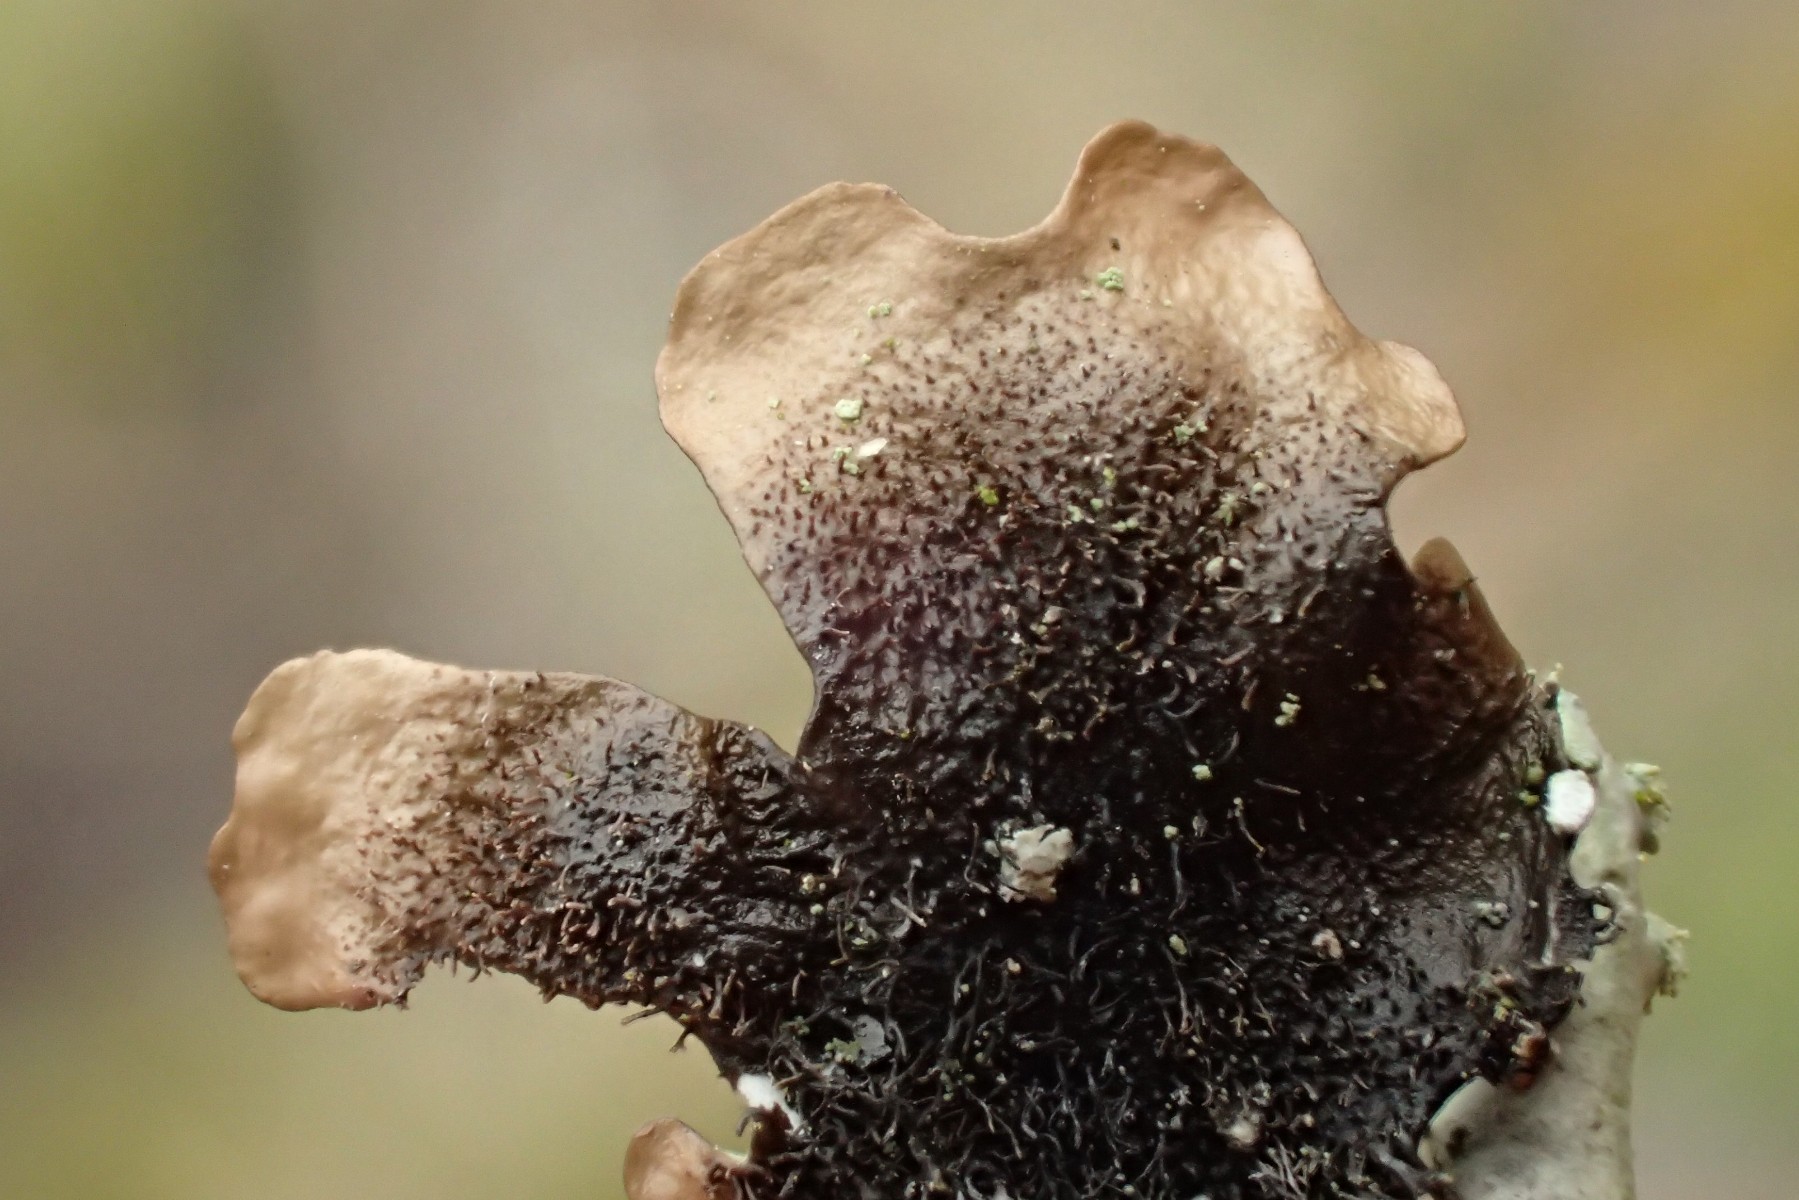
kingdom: Fungi
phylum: Ascomycota
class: Lecanoromycetes
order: Lecanorales
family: Parmeliaceae
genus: Hypotrachyna
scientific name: Hypotrachyna revoluta
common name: bleggrå skållav
